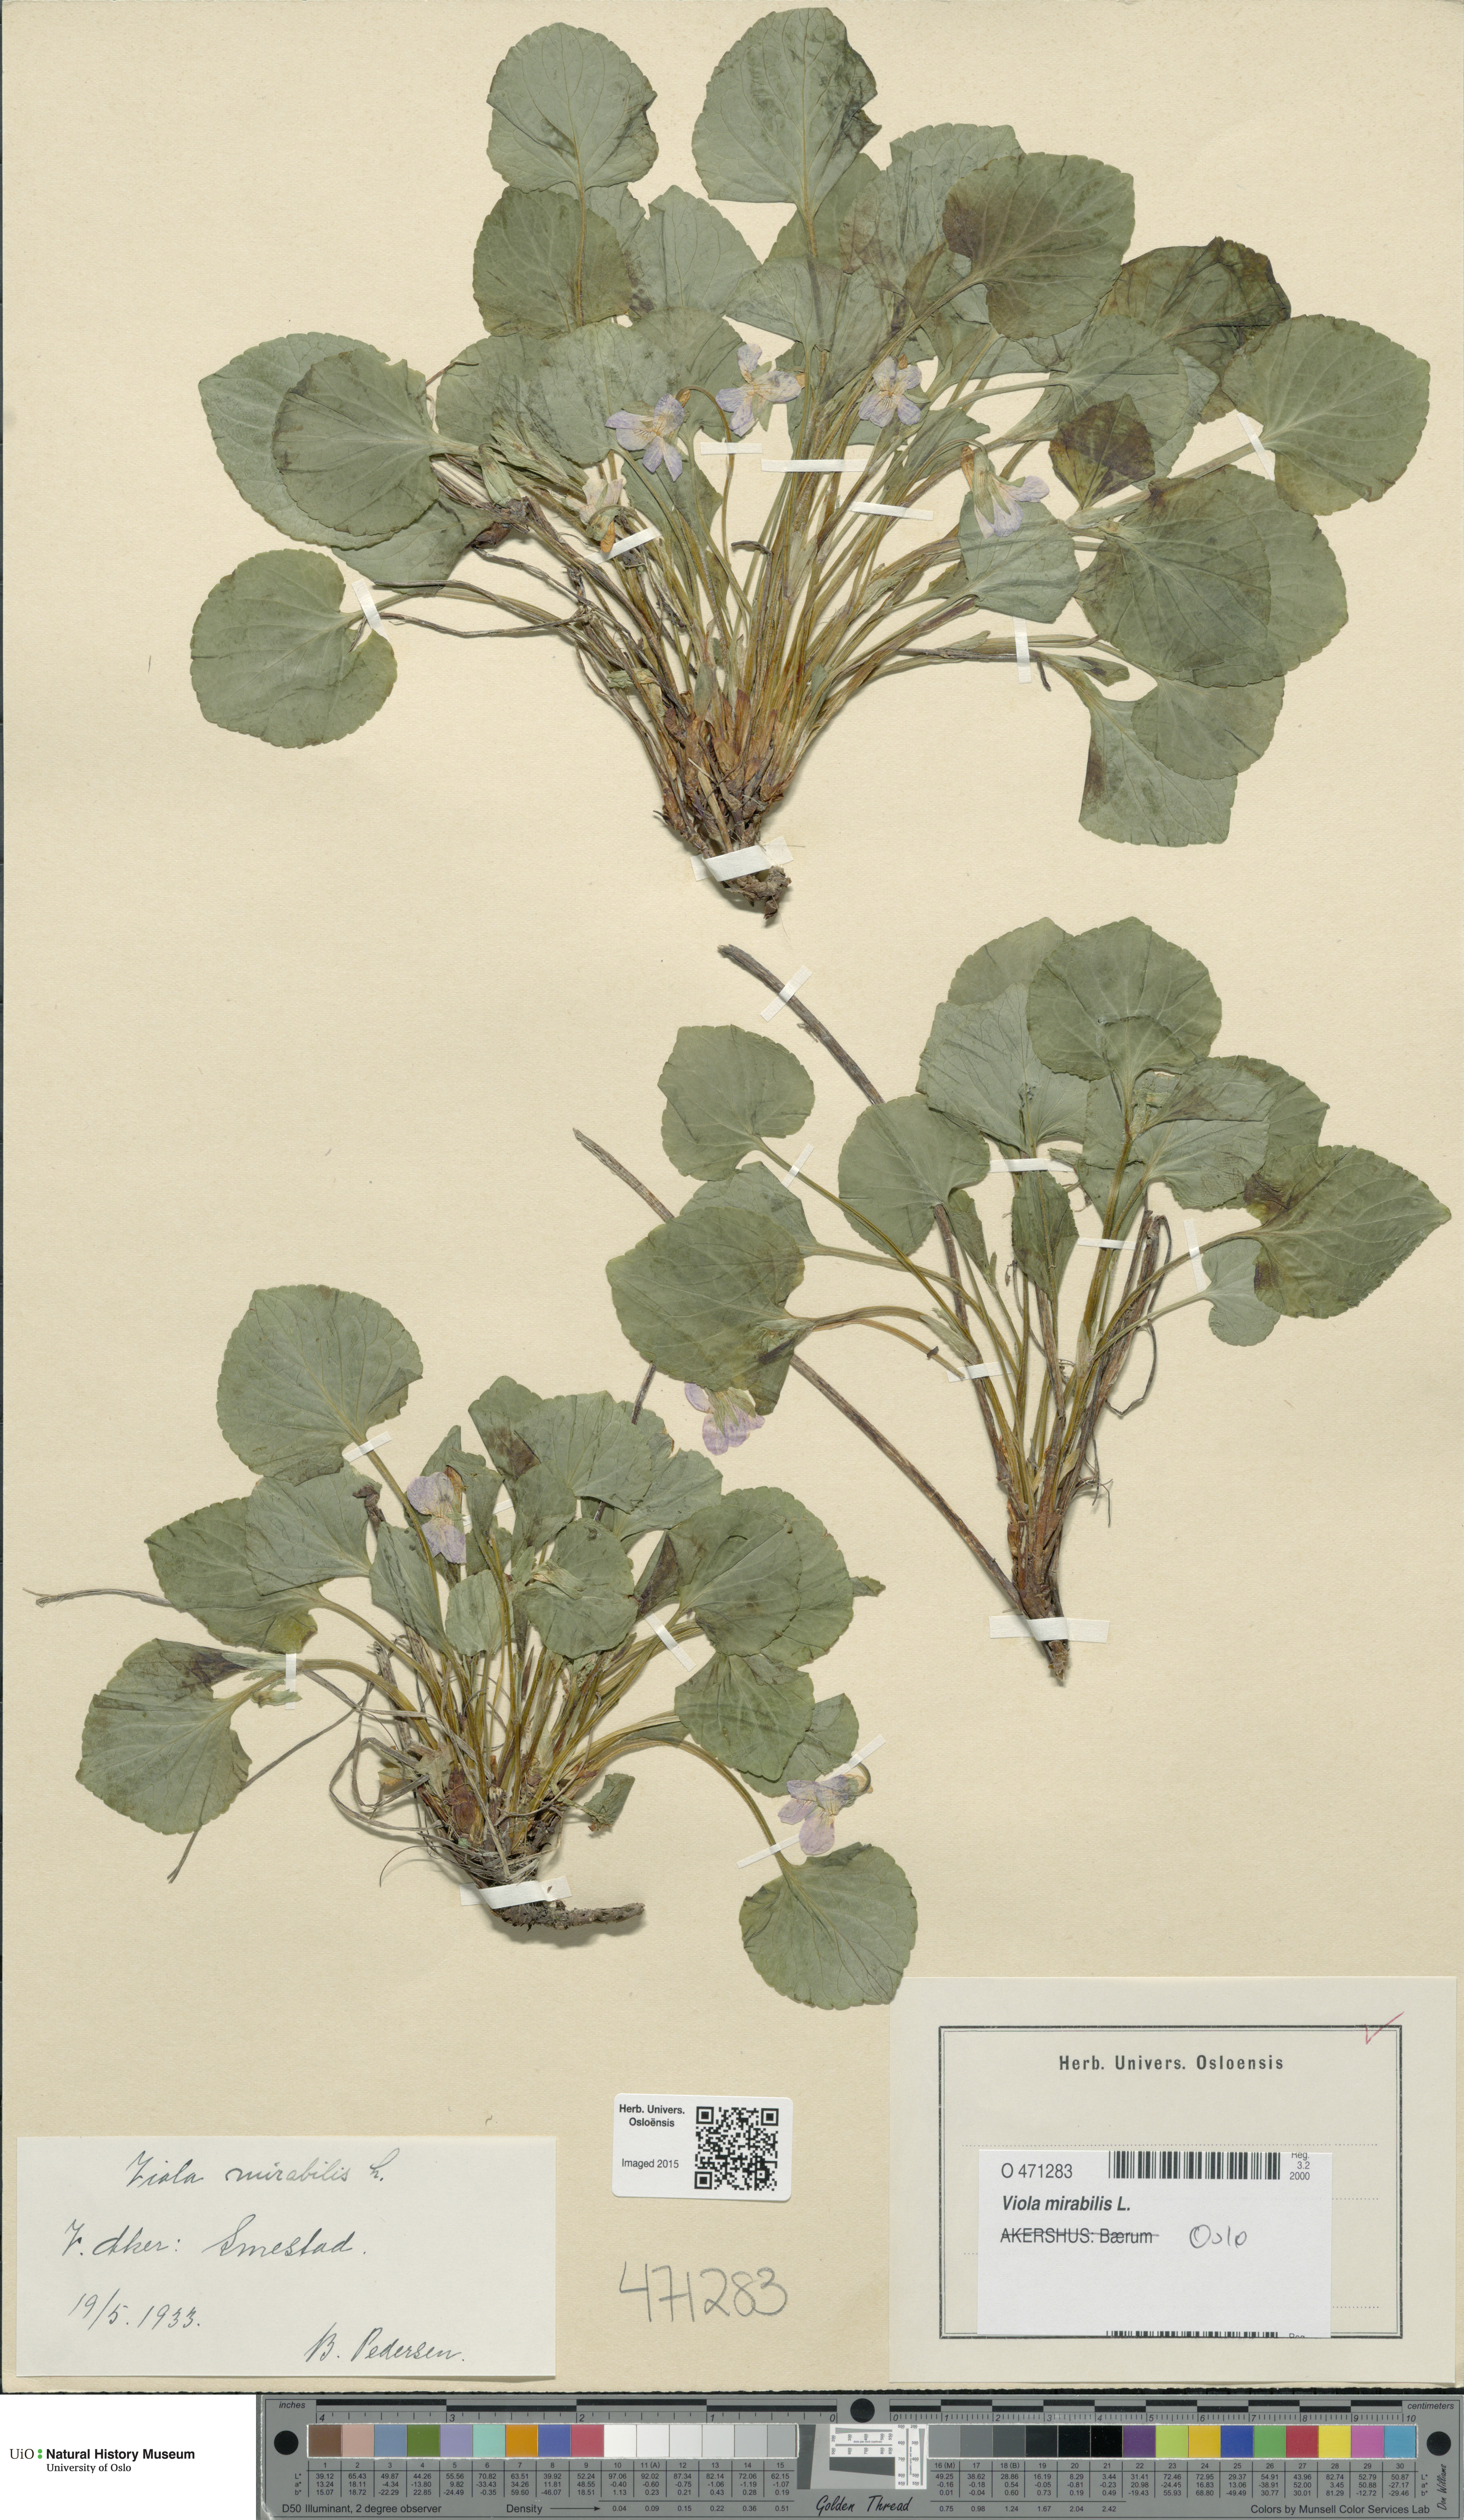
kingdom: Plantae
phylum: Tracheophyta
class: Magnoliopsida
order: Malpighiales
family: Violaceae
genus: Viola
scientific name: Viola mirabilis
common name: Wonder violet
